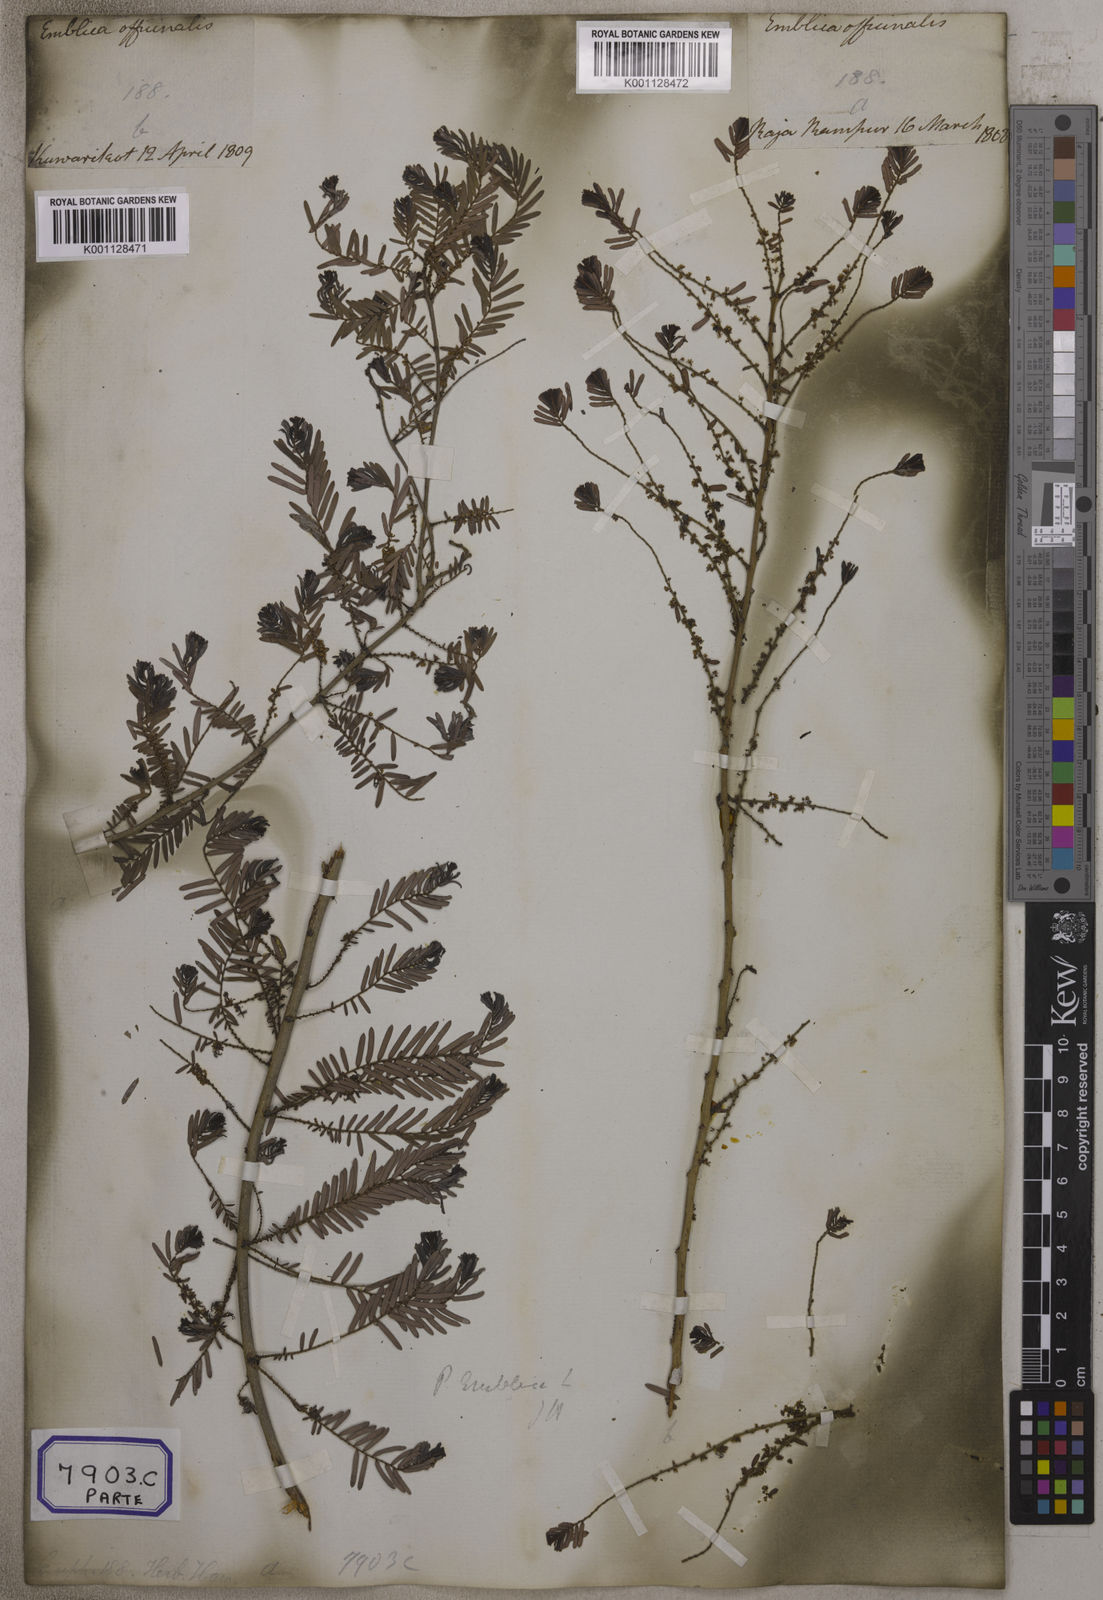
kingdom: Plantae
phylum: Tracheophyta
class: Magnoliopsida
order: Malpighiales
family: Euphorbiaceae
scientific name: Euphorbiaceae
